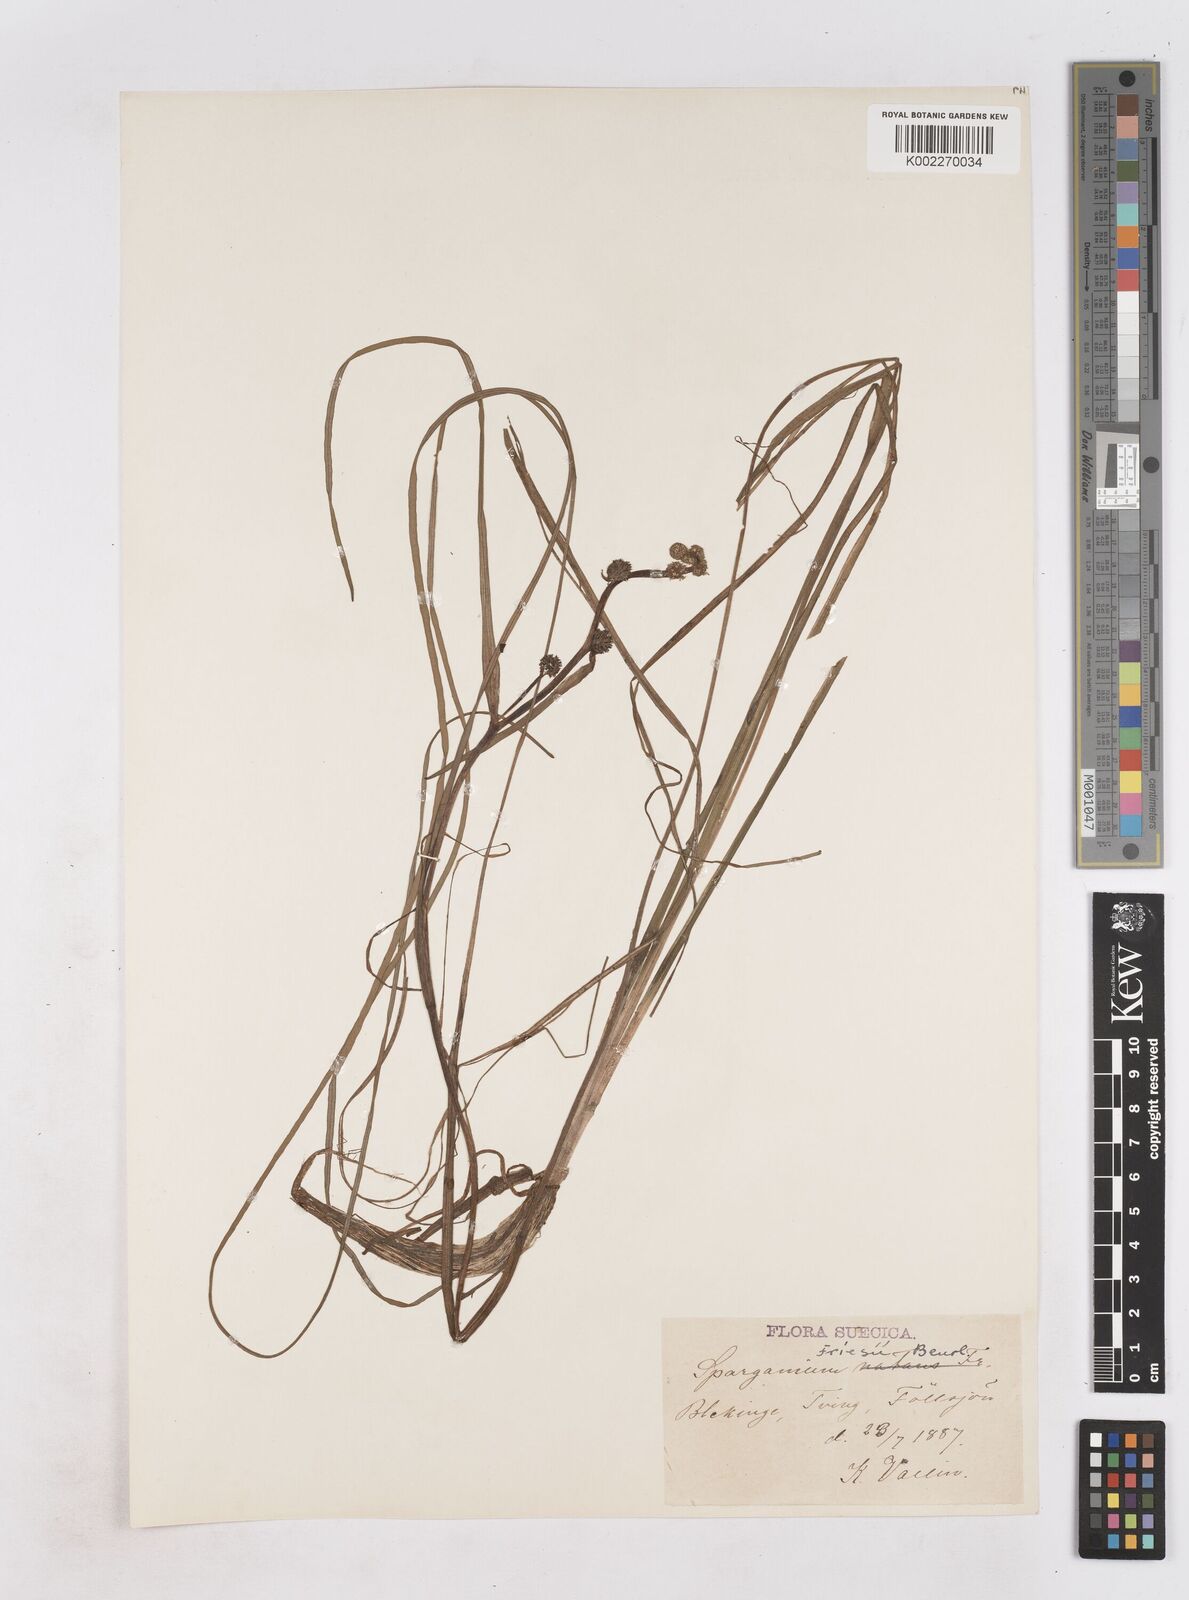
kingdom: Plantae
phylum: Tracheophyta
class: Liliopsida
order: Poales
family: Typhaceae
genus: Sparganium
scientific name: Sparganium gramineum
